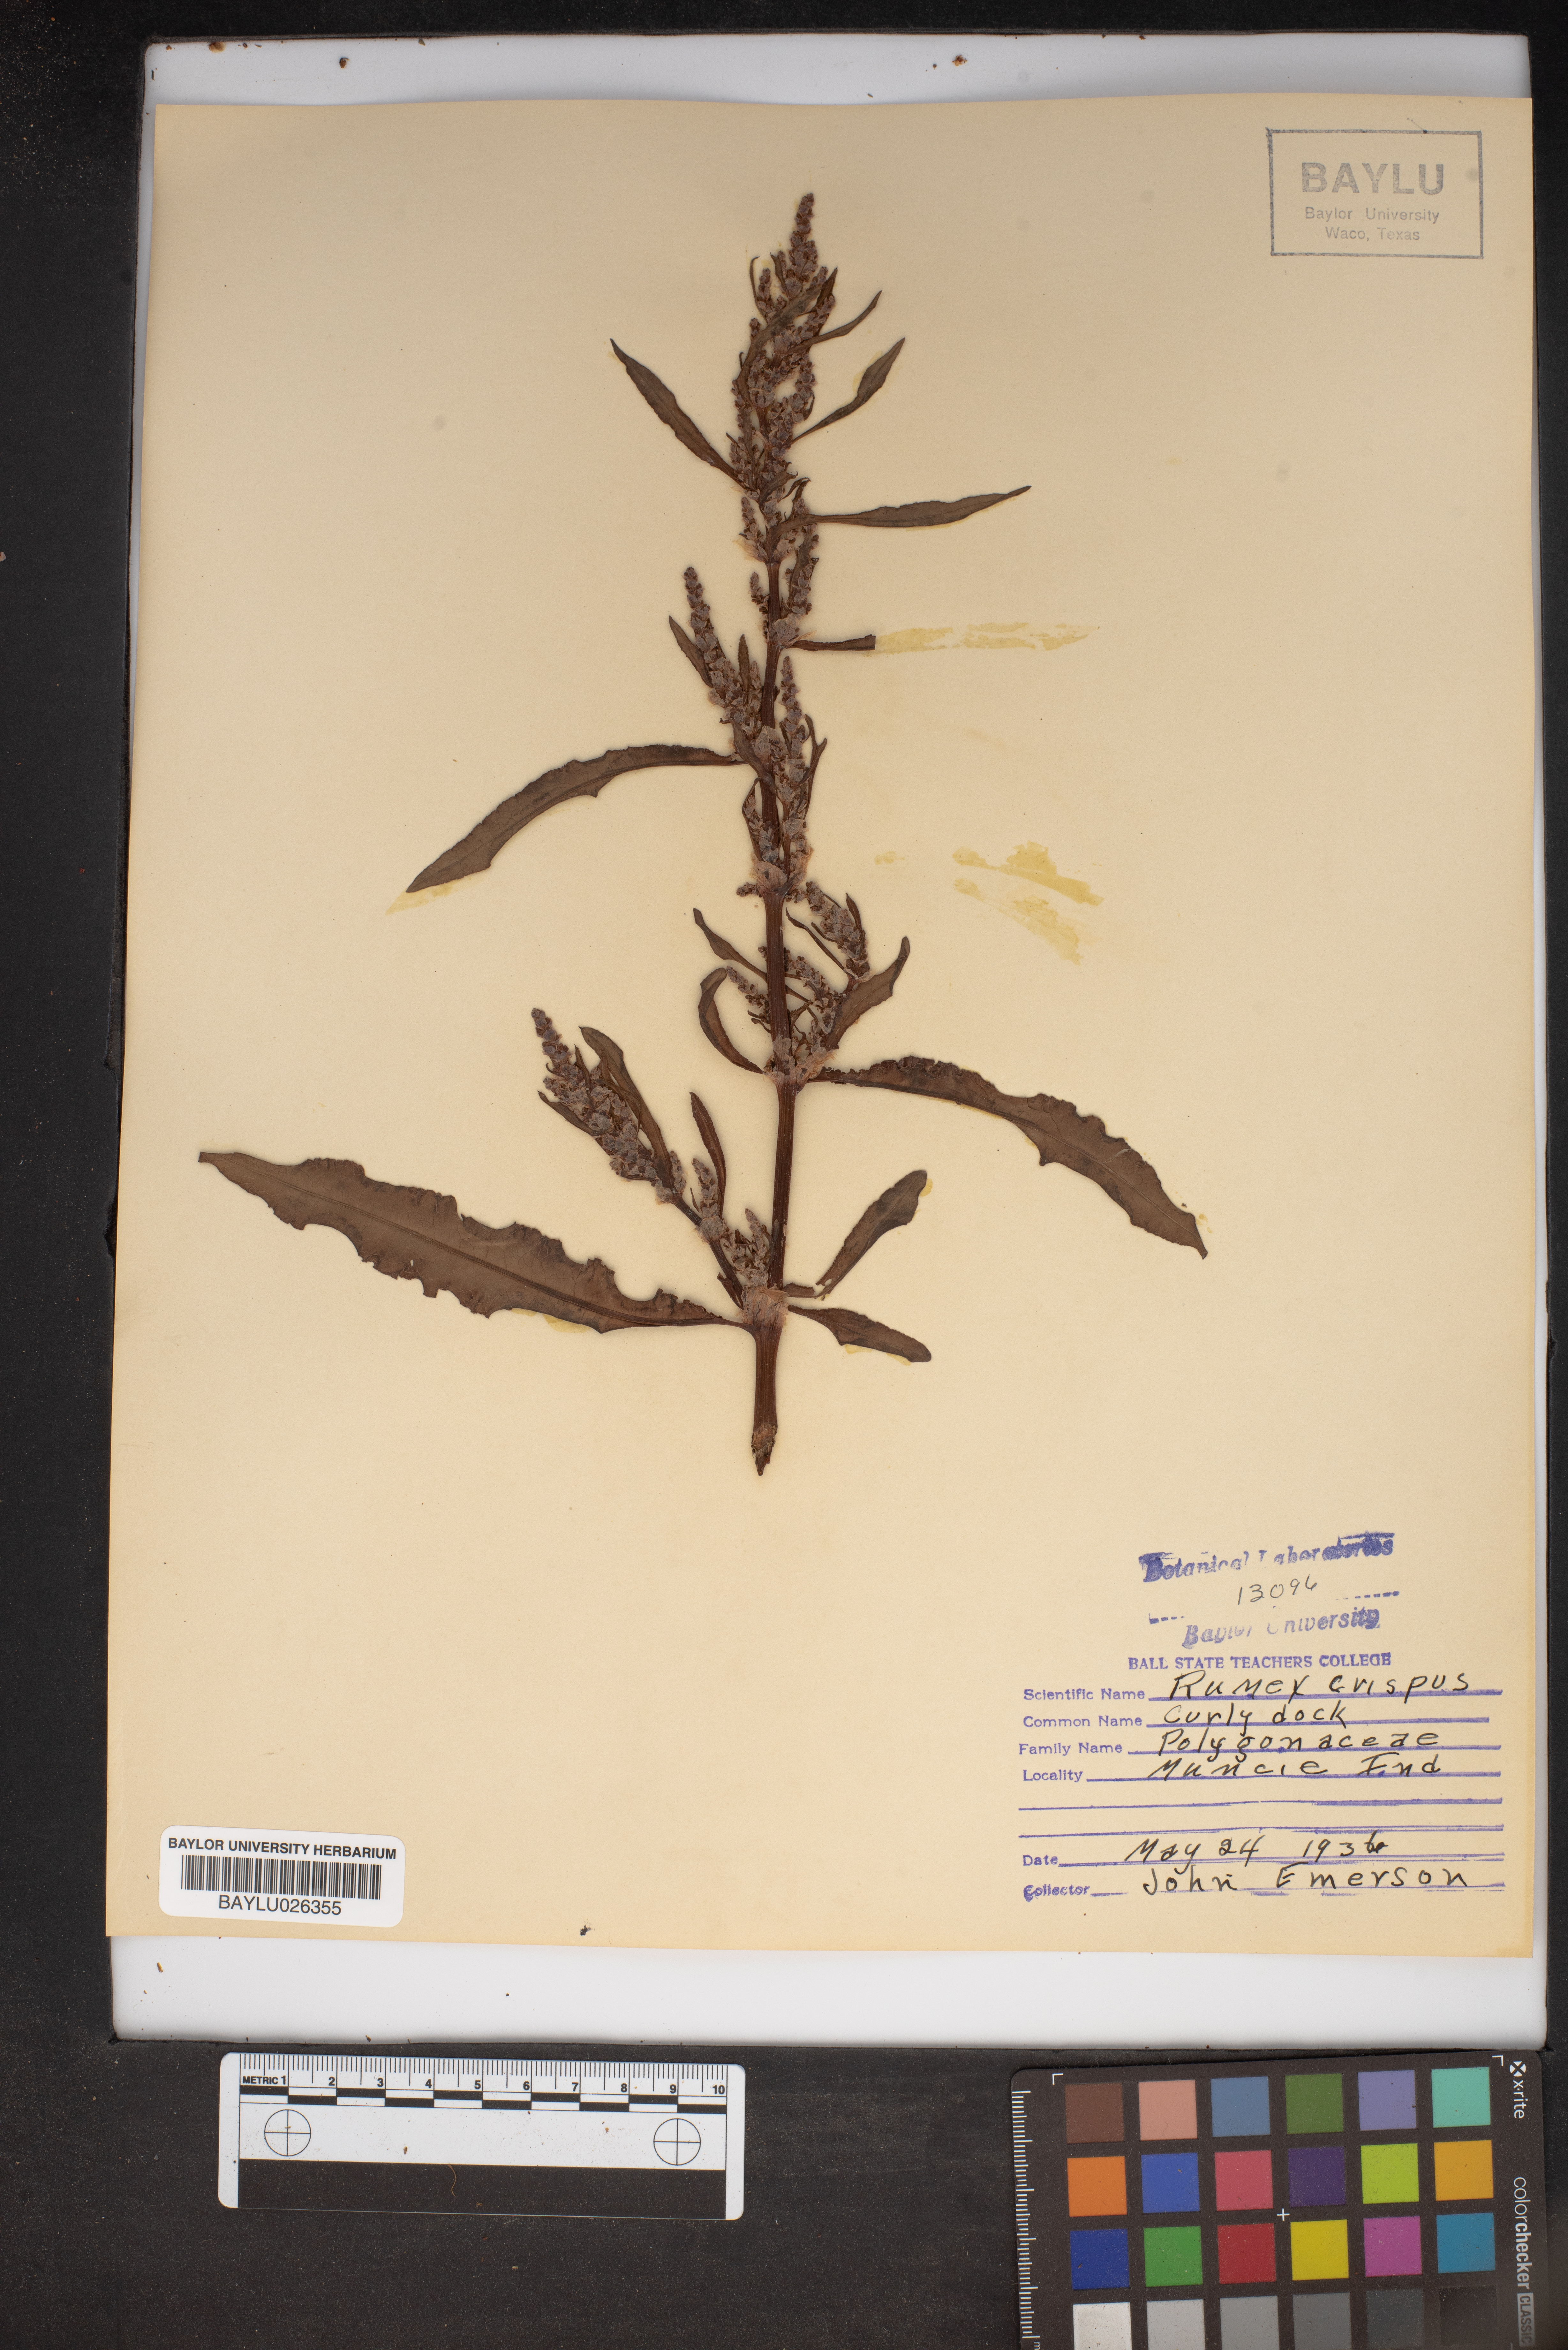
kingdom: Plantae
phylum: Tracheophyta
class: Magnoliopsida
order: Caryophyllales
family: Polygonaceae
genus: Rumex
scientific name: Rumex crispus
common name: Curled dock
